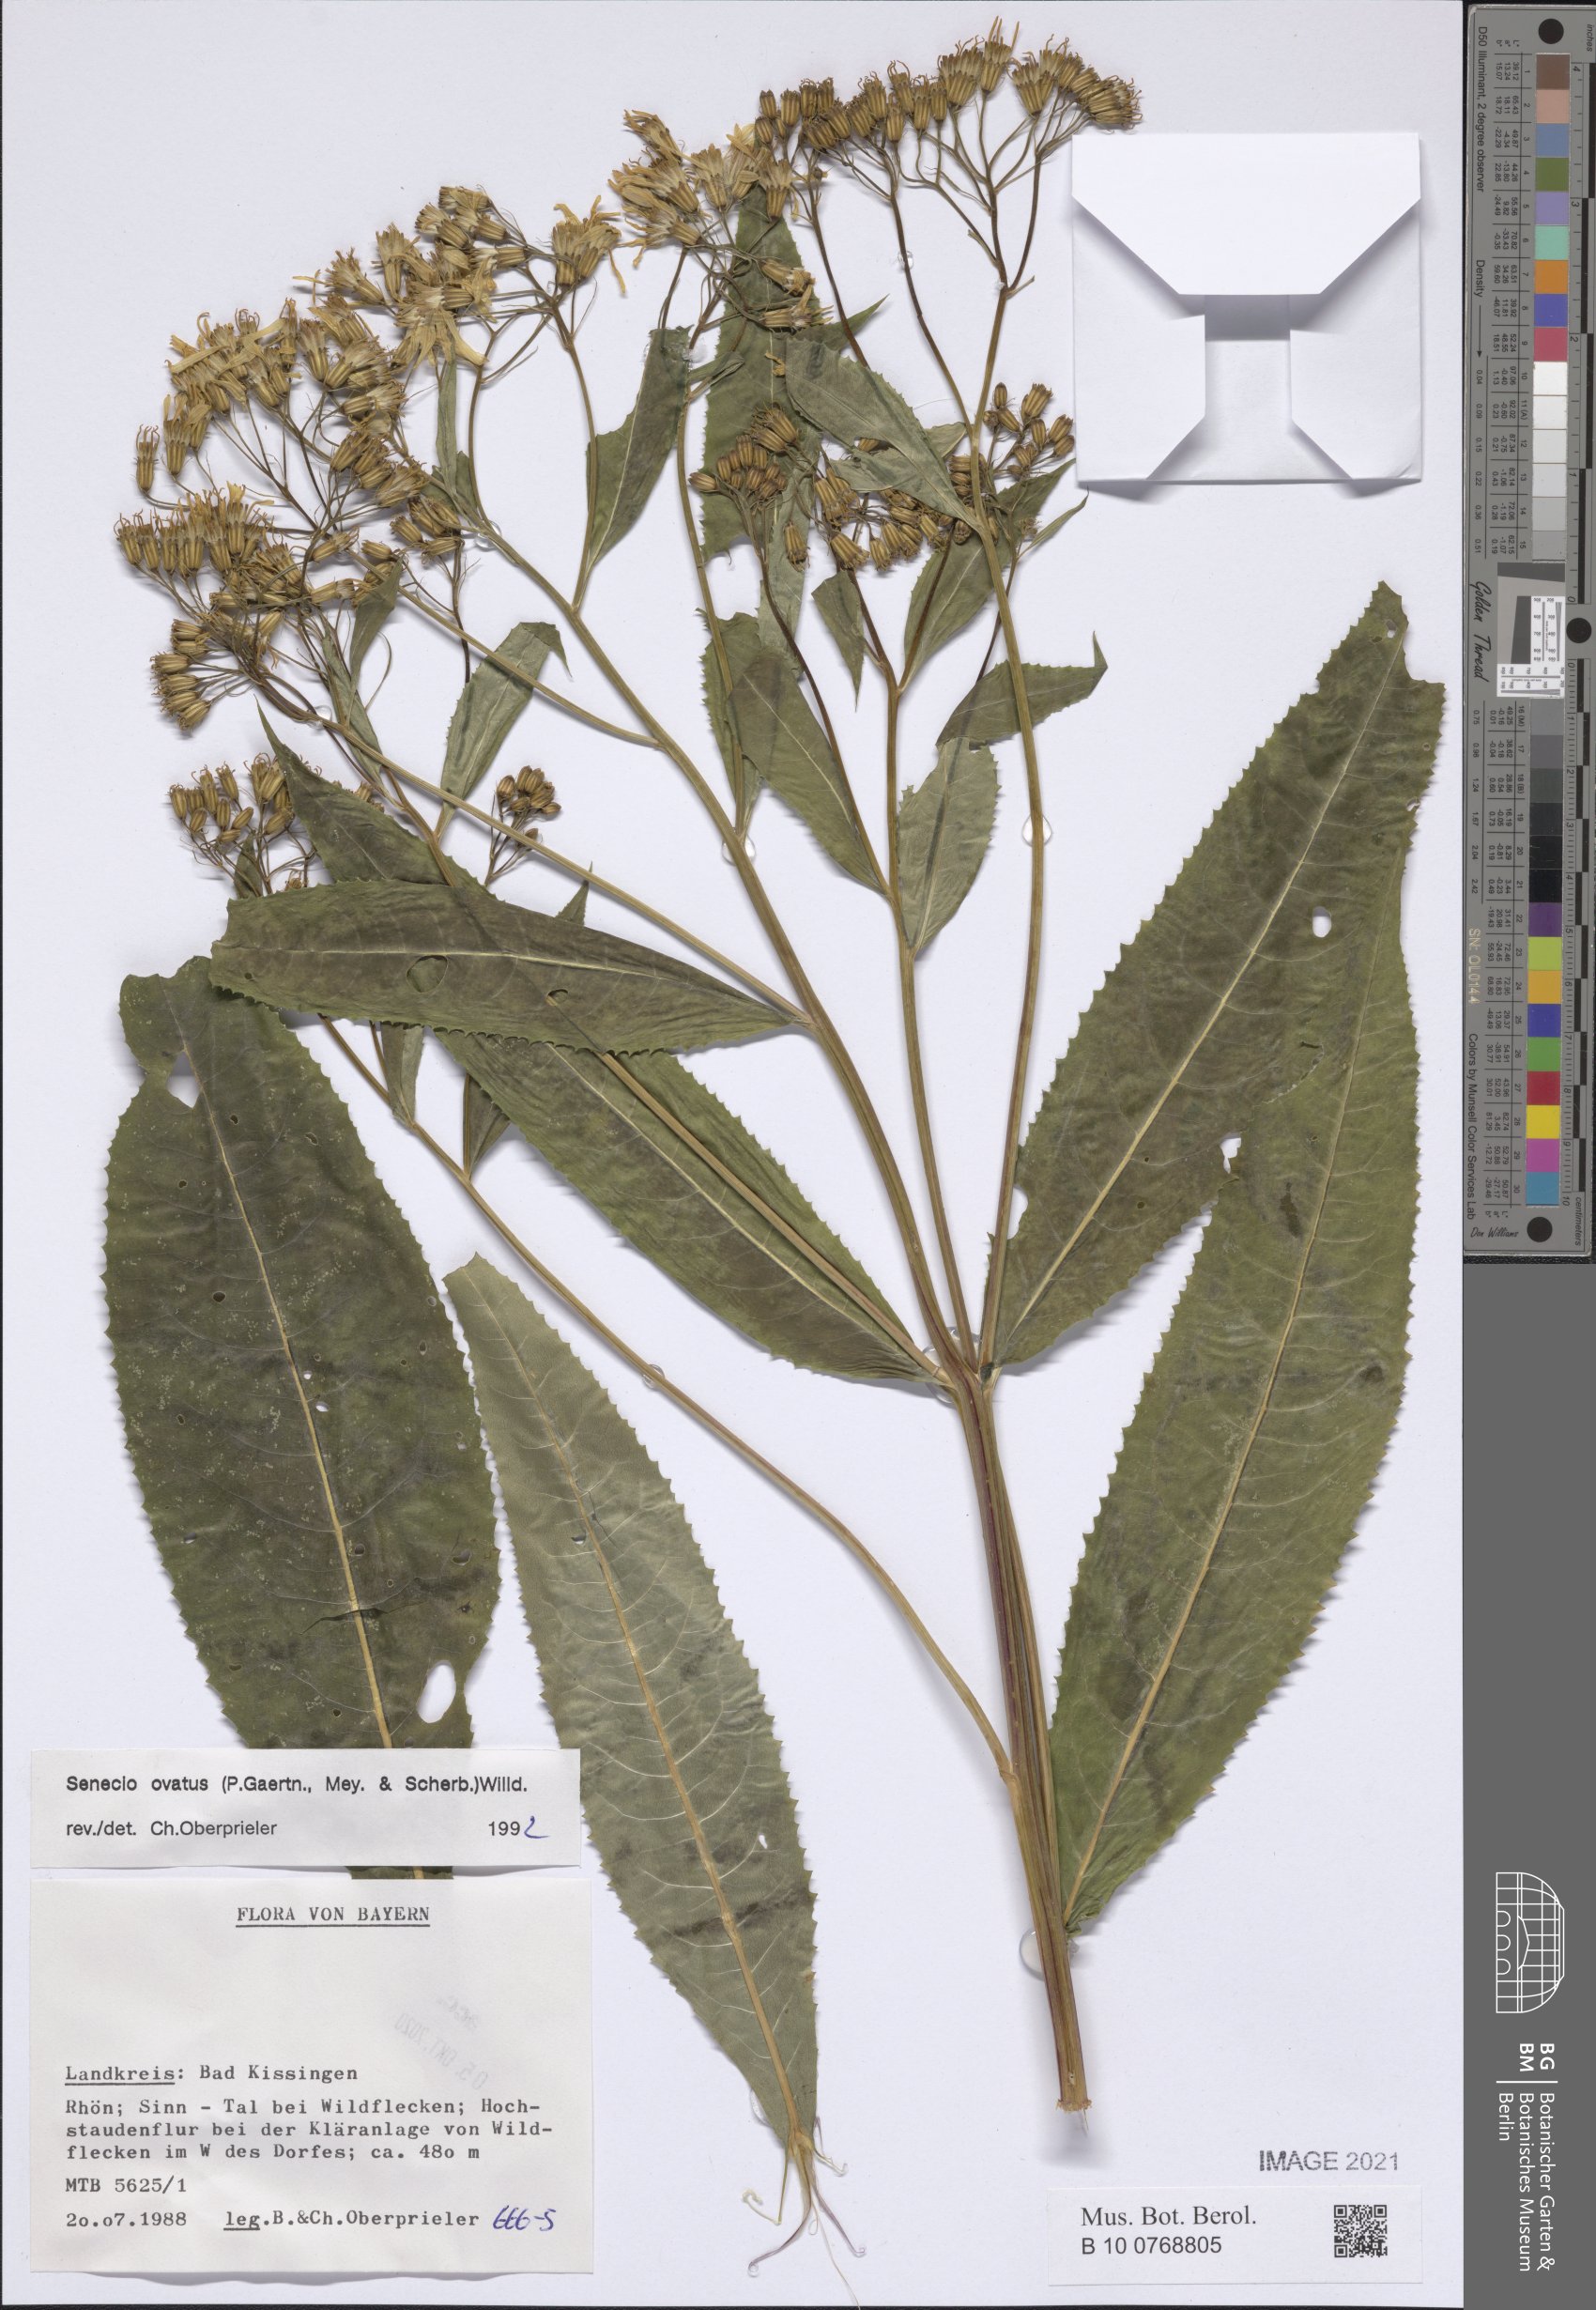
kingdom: Plantae
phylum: Tracheophyta
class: Magnoliopsida
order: Asterales
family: Asteraceae
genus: Senecio
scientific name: Senecio ovatus
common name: Wood ragwort
